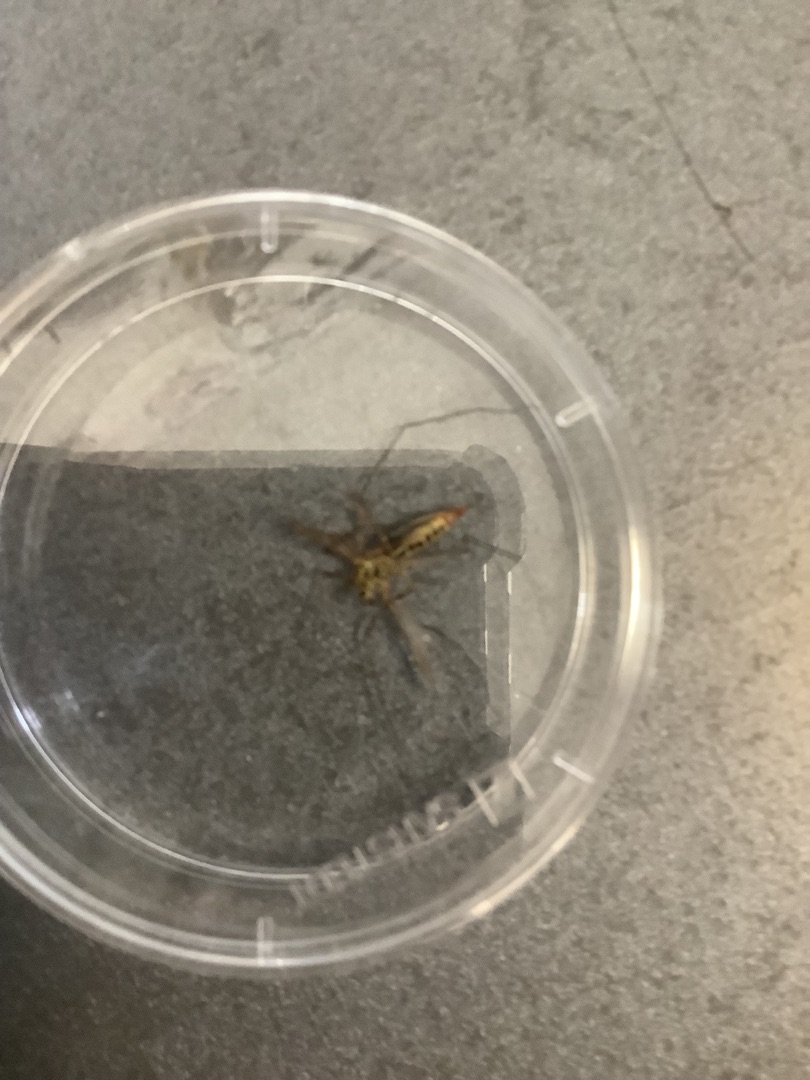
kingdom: Animalia
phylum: Arthropoda
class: Insecta
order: Diptera
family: Tipulidae
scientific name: Tipulidae
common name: Stankelben
